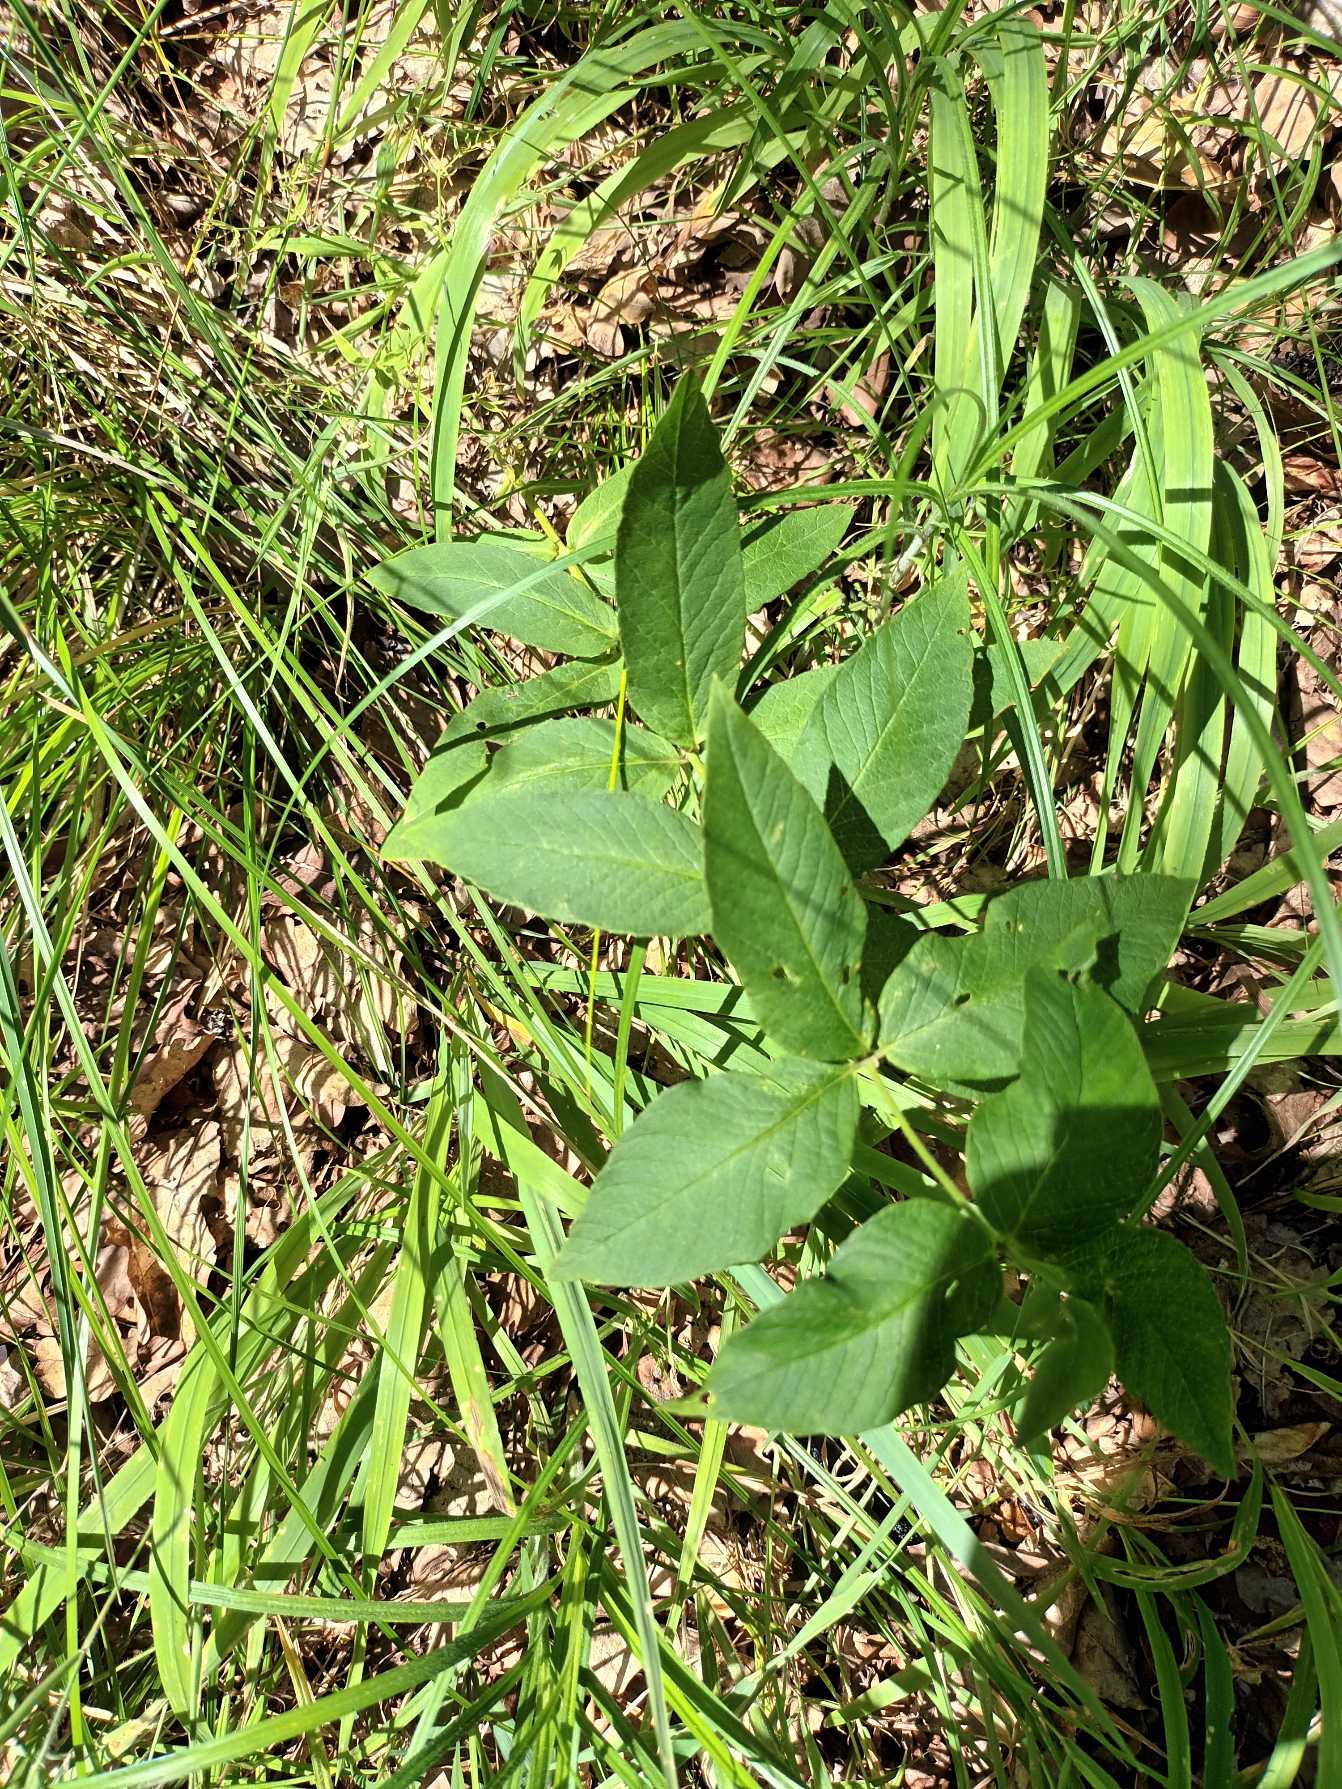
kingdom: Plantae
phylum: Tracheophyta
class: Magnoliopsida
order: Ericales
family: Primulaceae
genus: Lysimachia
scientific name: Lysimachia vulgaris
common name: Almindelig fredløs
